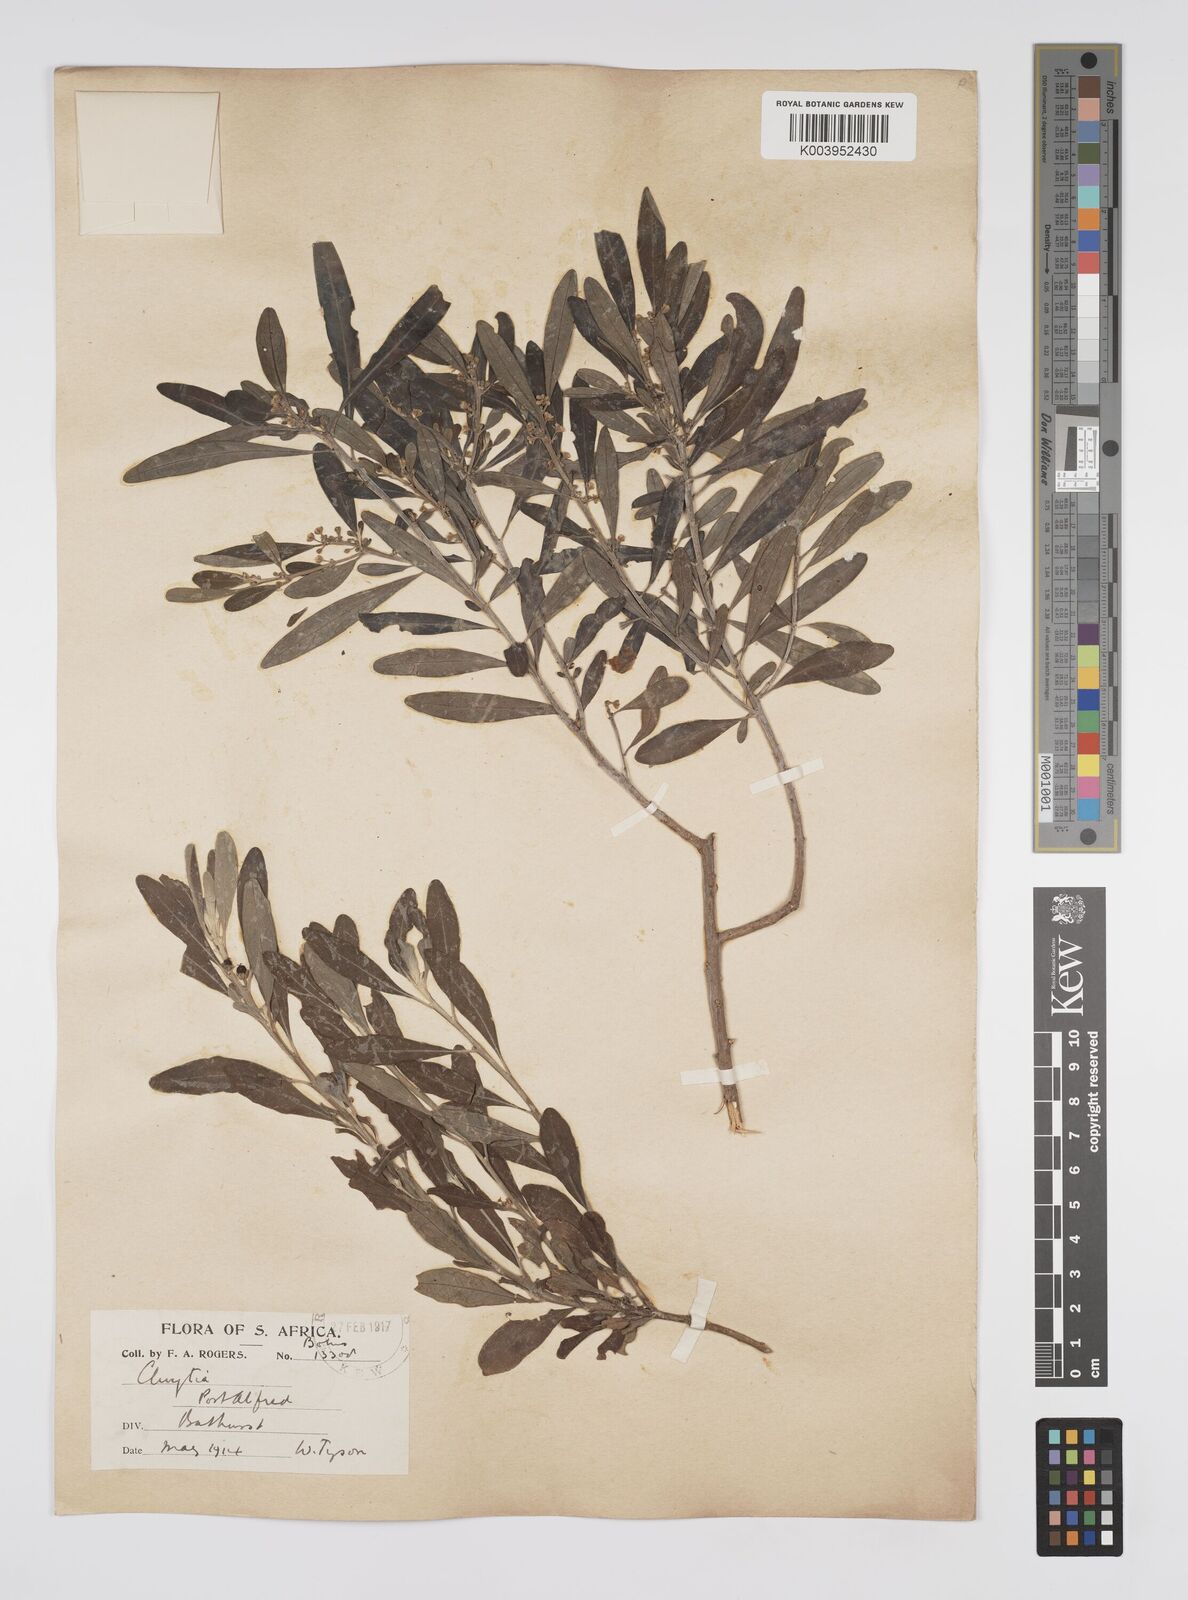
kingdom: Plantae
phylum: Tracheophyta
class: Magnoliopsida
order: Malpighiales
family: Peraceae
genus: Clutia
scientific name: Clutia daphnoides
